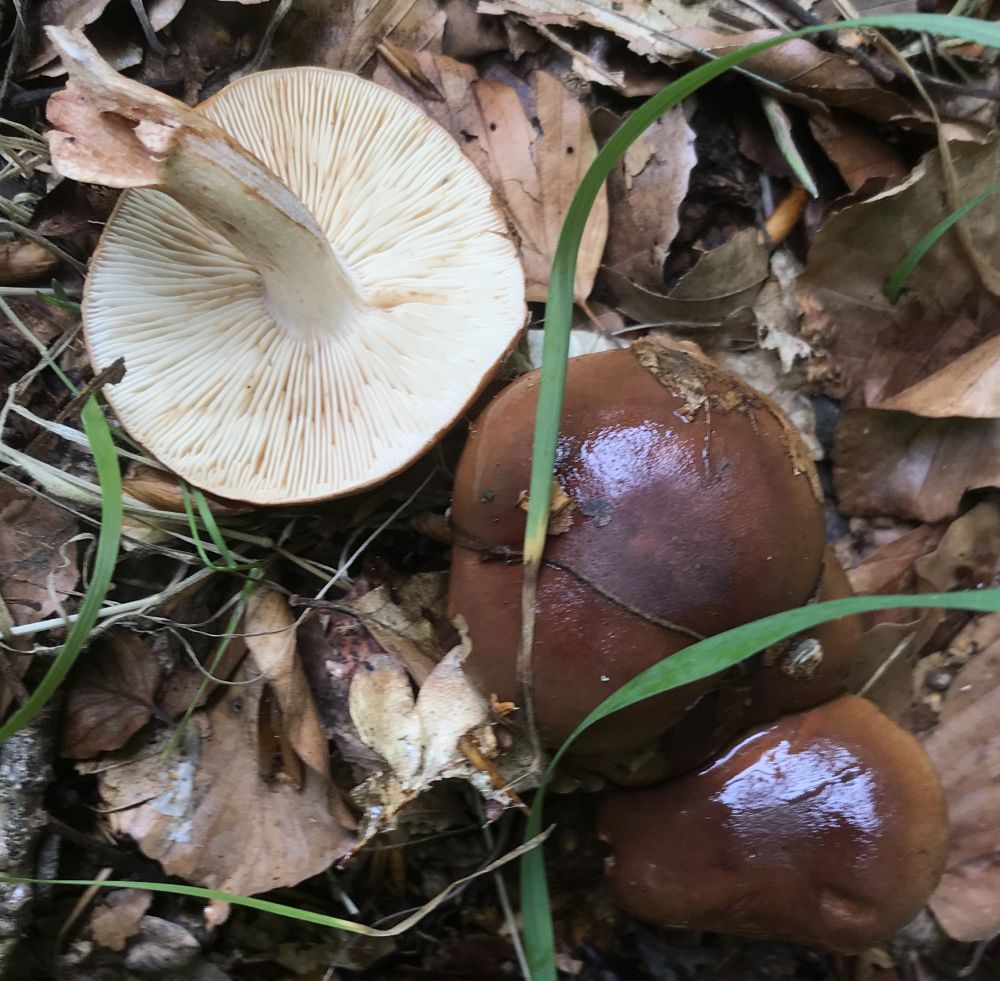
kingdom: Fungi
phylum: Basidiomycota
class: Agaricomycetes
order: Agaricales
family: Tricholomataceae
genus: Tricholoma
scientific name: Tricholoma ustale
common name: sveden ridderhat
